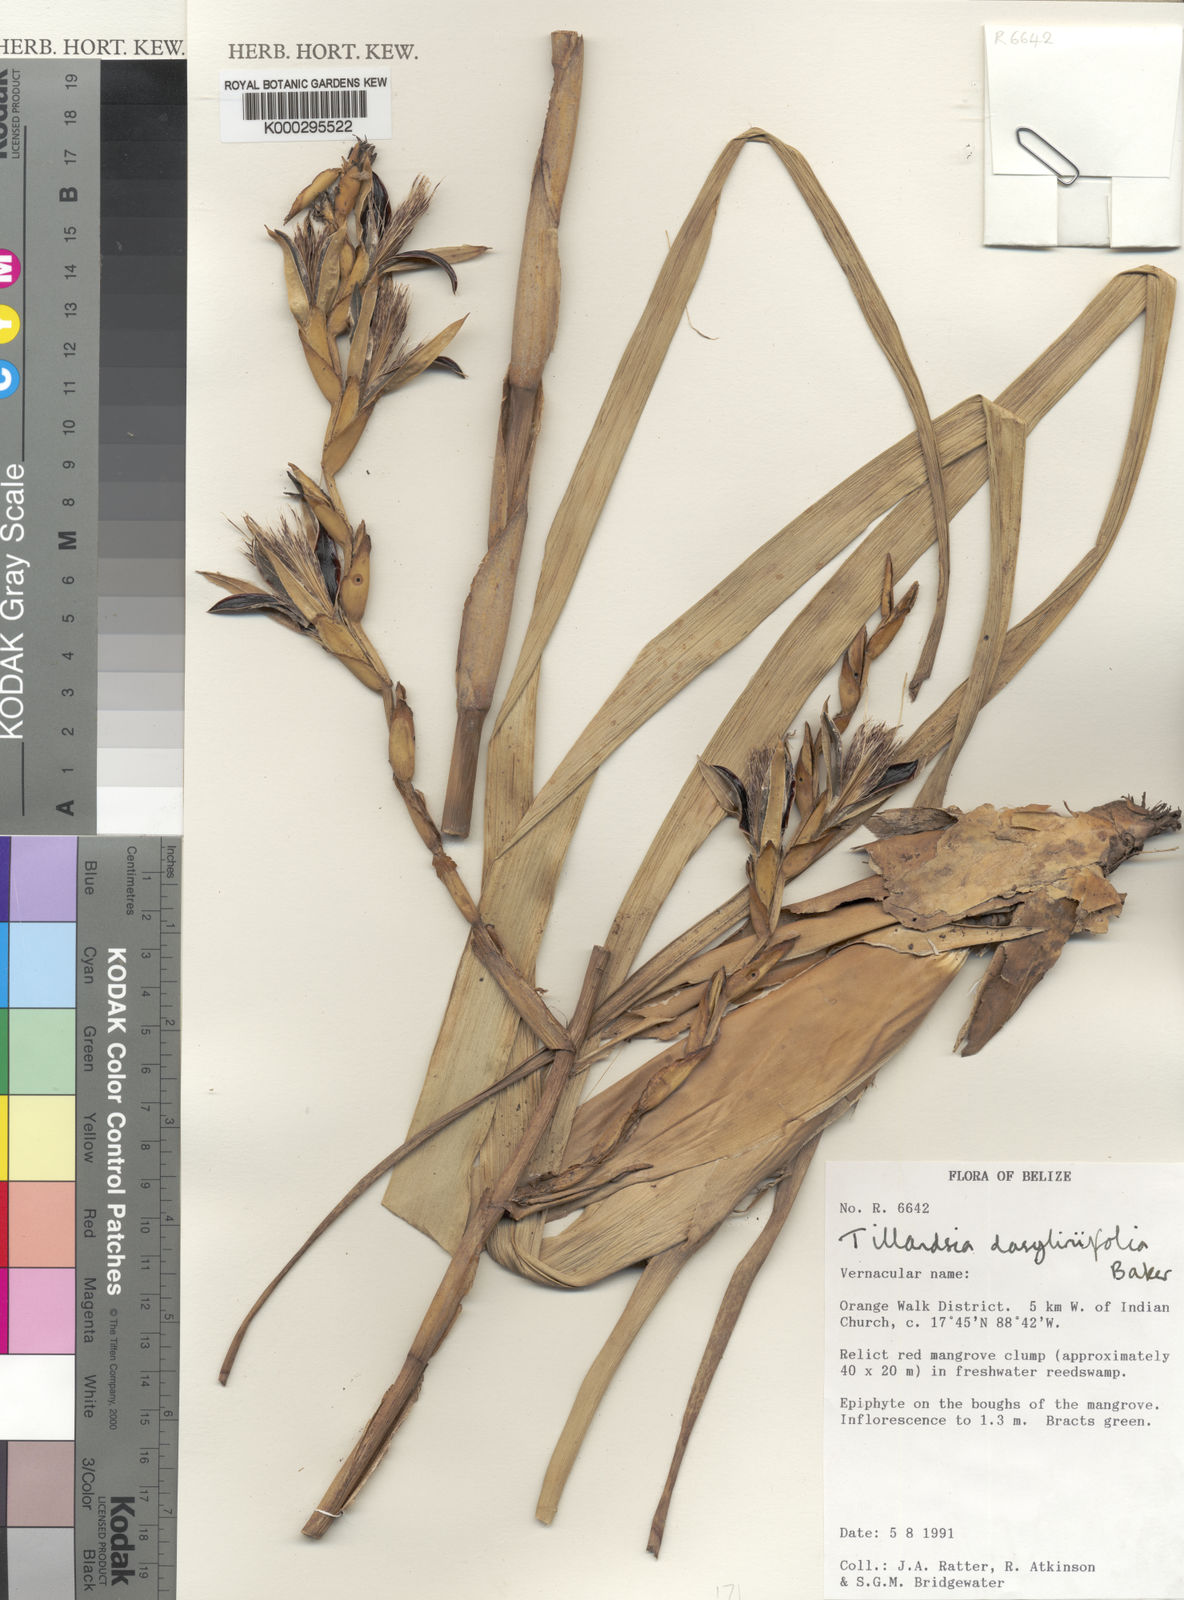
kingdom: Plantae
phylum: Tracheophyta
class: Liliopsida
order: Poales
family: Bromeliaceae
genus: Tillandsia
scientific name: Tillandsia limbata
